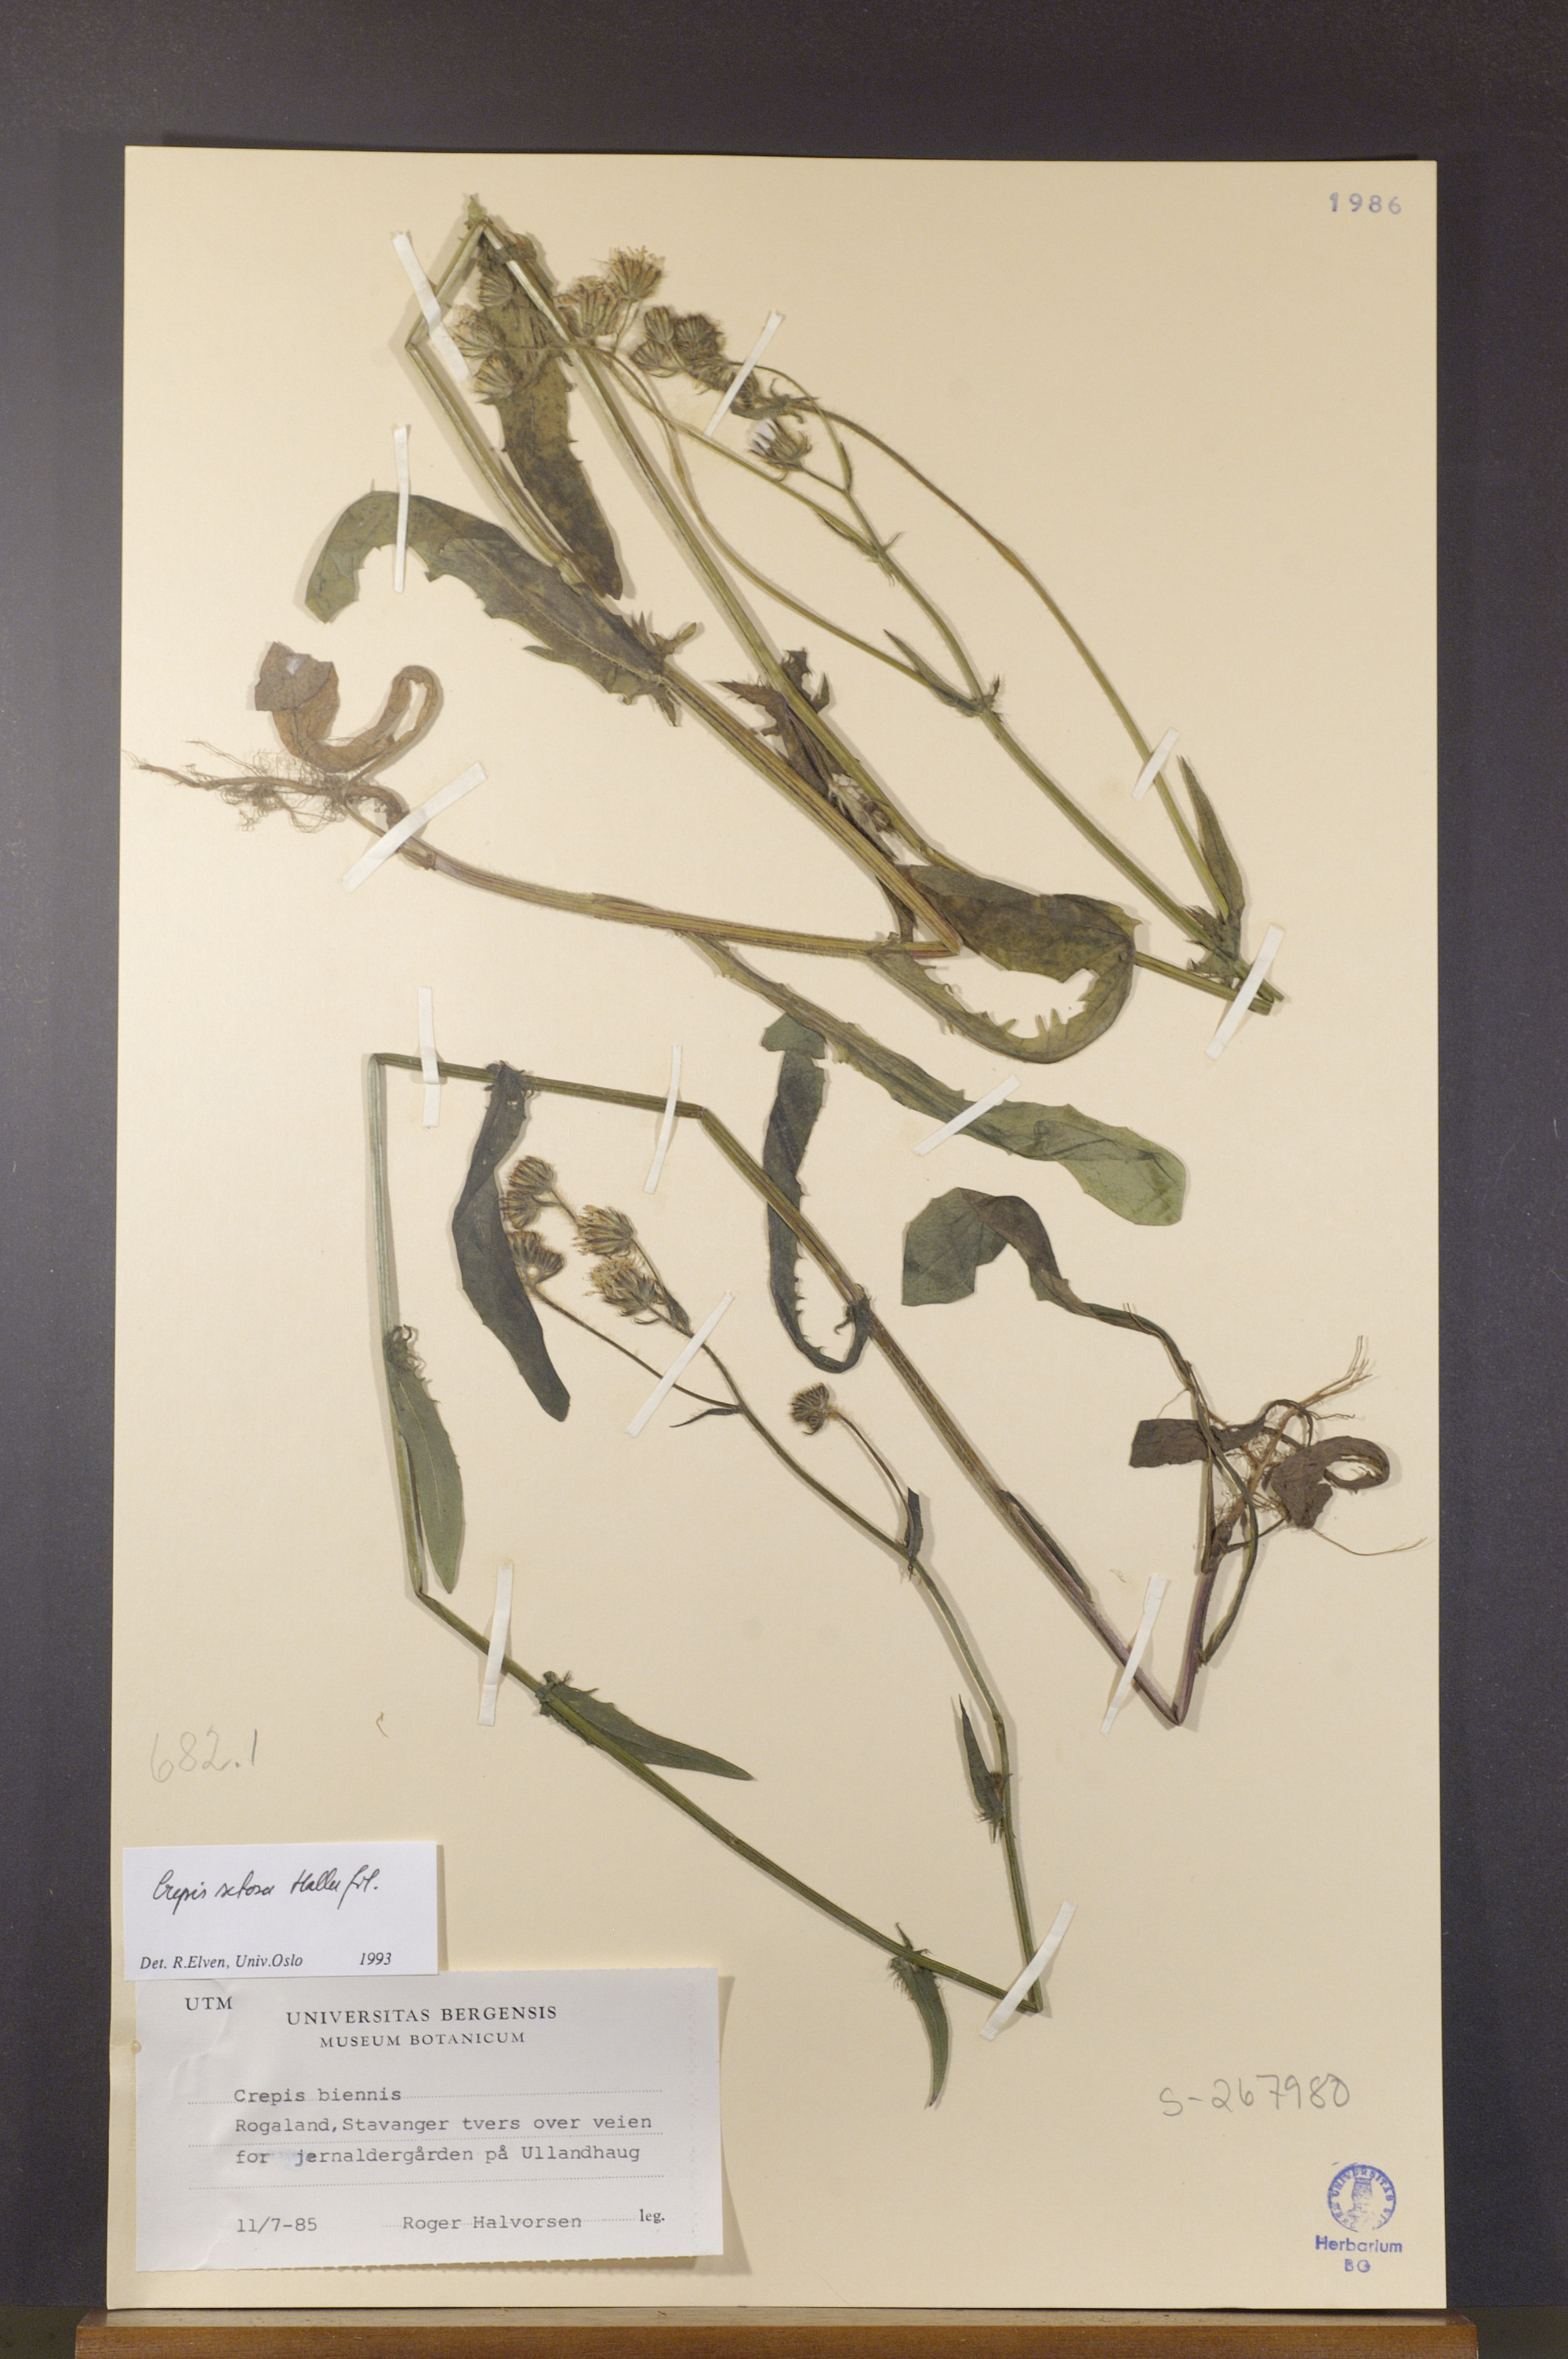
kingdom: Plantae
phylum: Tracheophyta
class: Magnoliopsida
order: Asterales
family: Asteraceae
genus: Crepis
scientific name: Crepis setosa
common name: Bristly hawk's-beard
